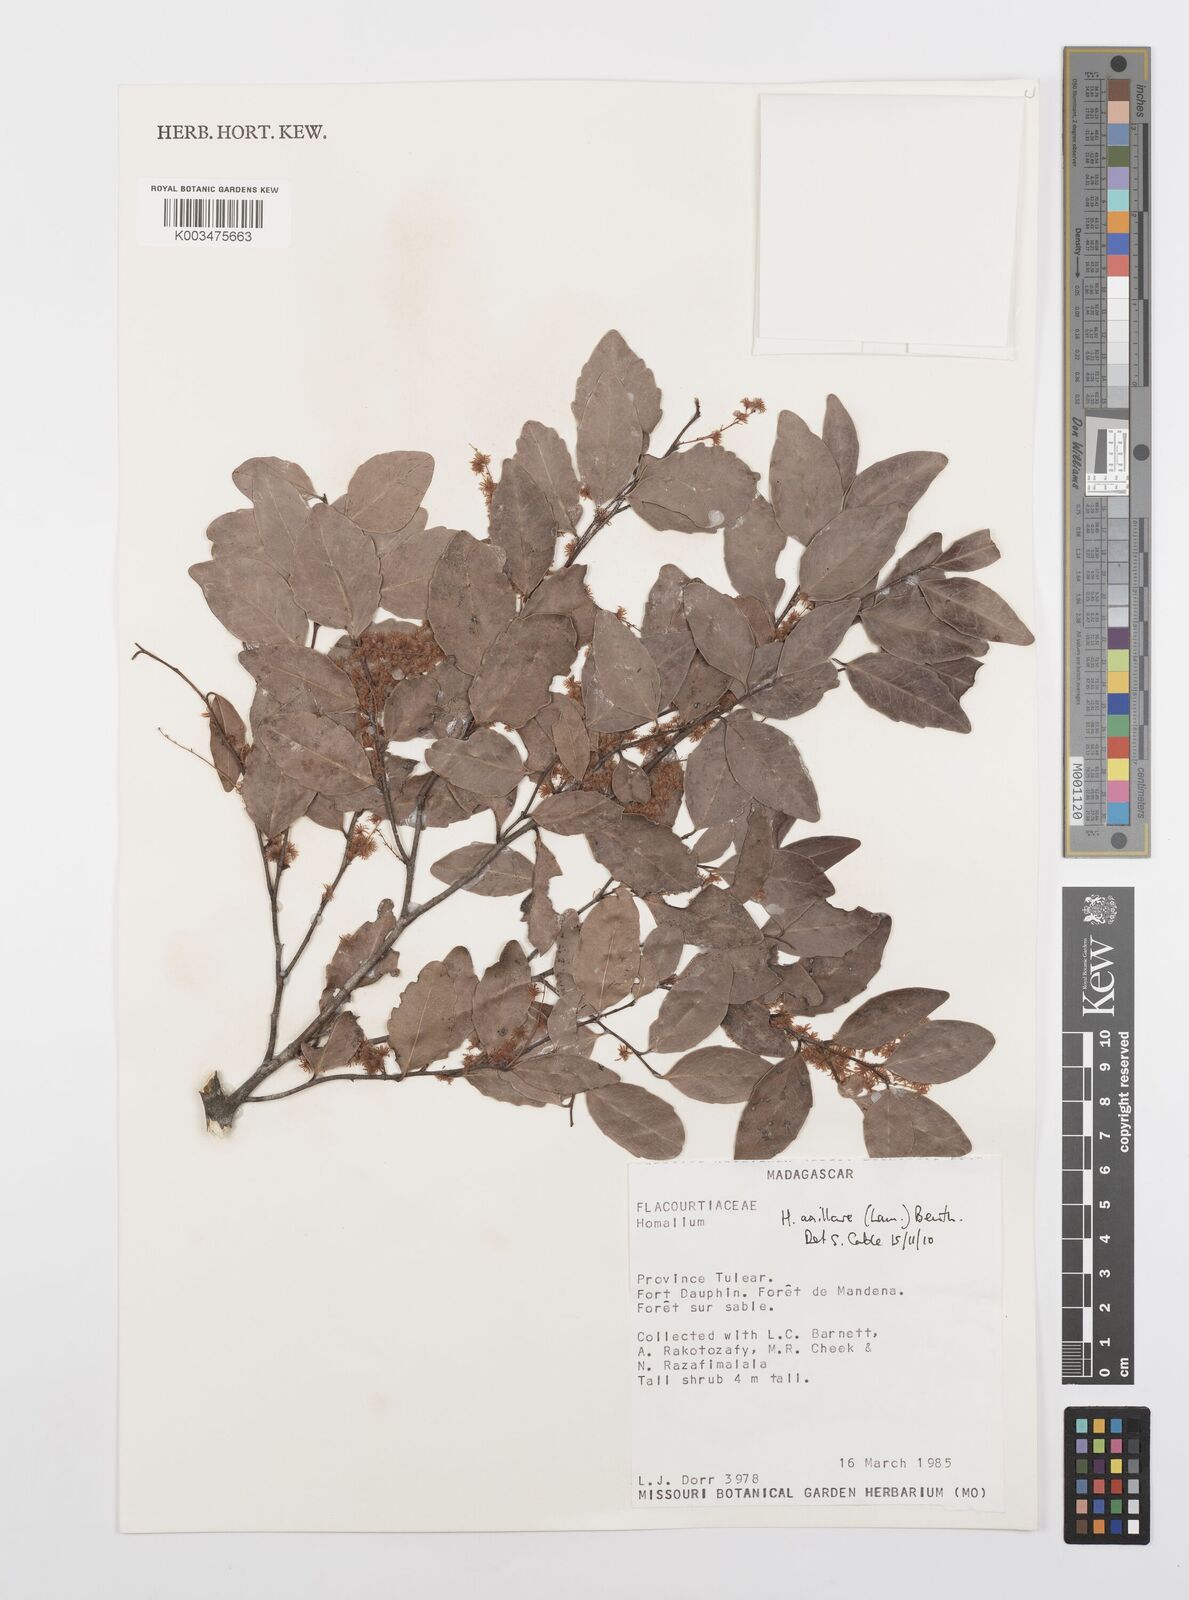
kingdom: Plantae
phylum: Tracheophyta
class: Magnoliopsida
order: Malpighiales
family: Salicaceae
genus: Homalium
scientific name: Homalium axillare
